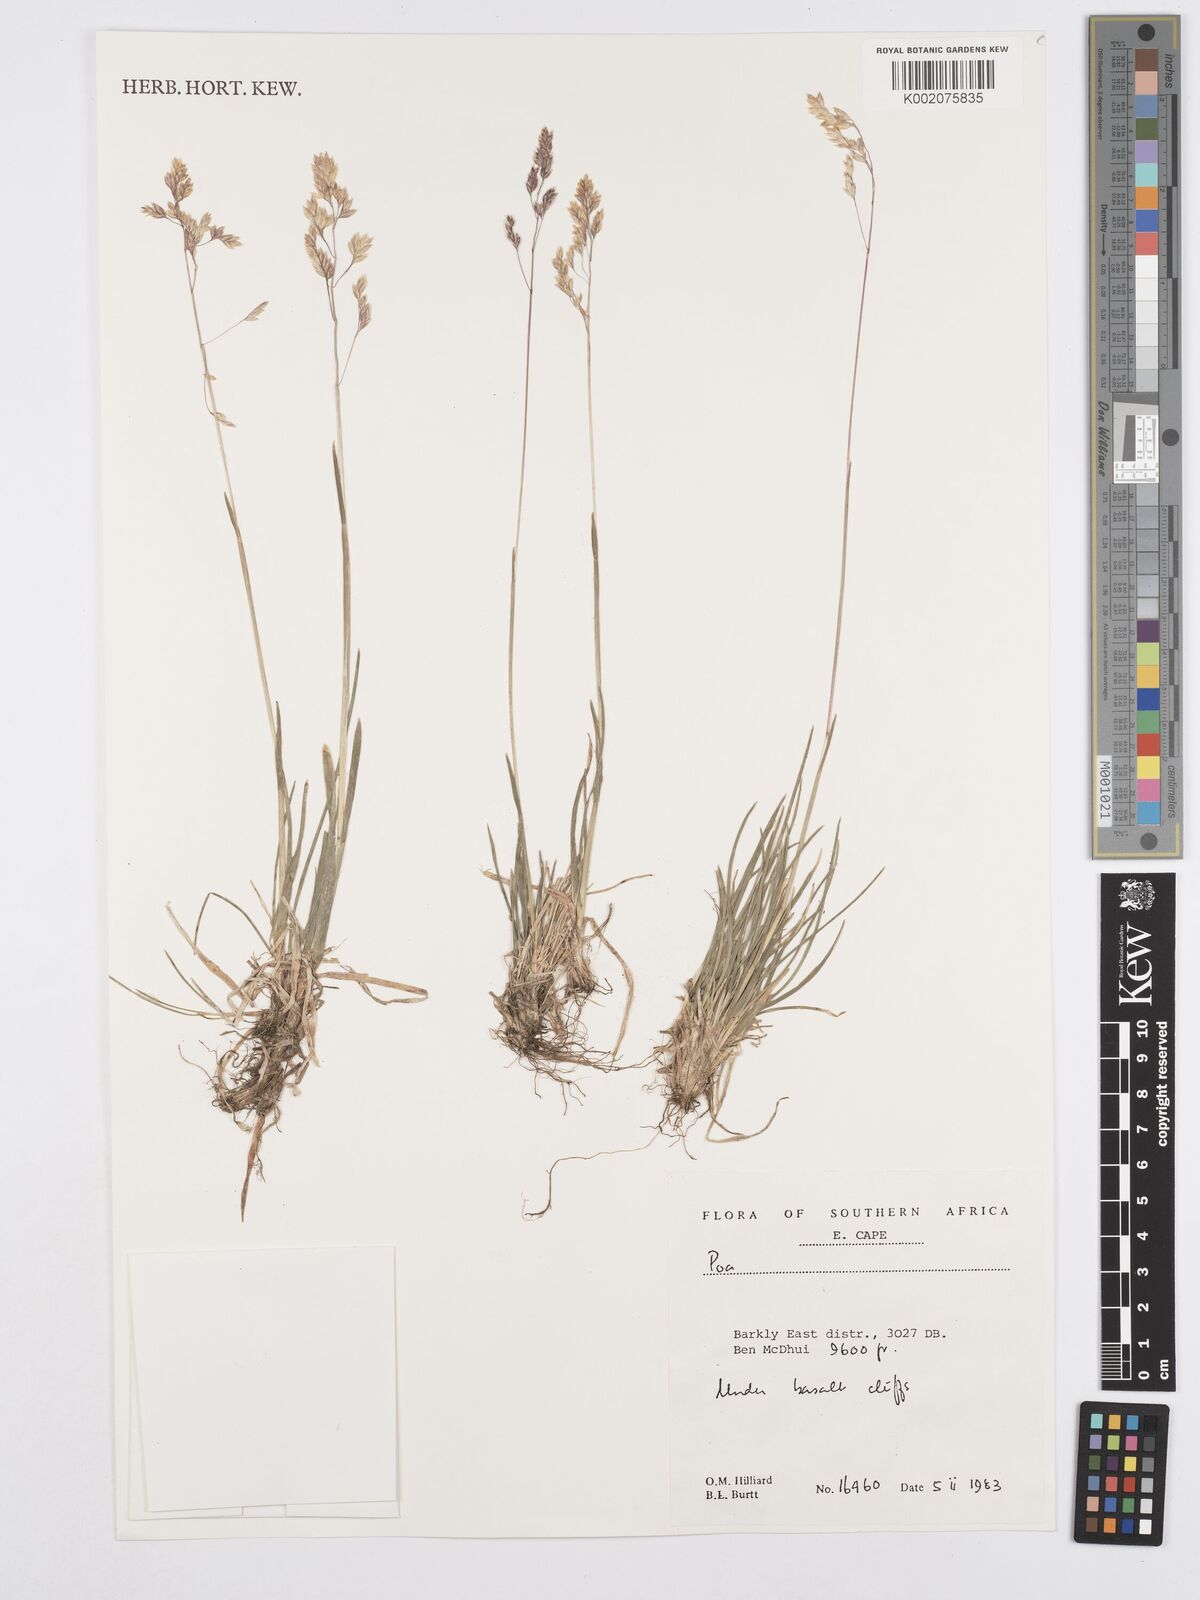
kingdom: Plantae
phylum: Tracheophyta
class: Liliopsida
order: Poales
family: Poaceae
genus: Poa
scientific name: Poa
